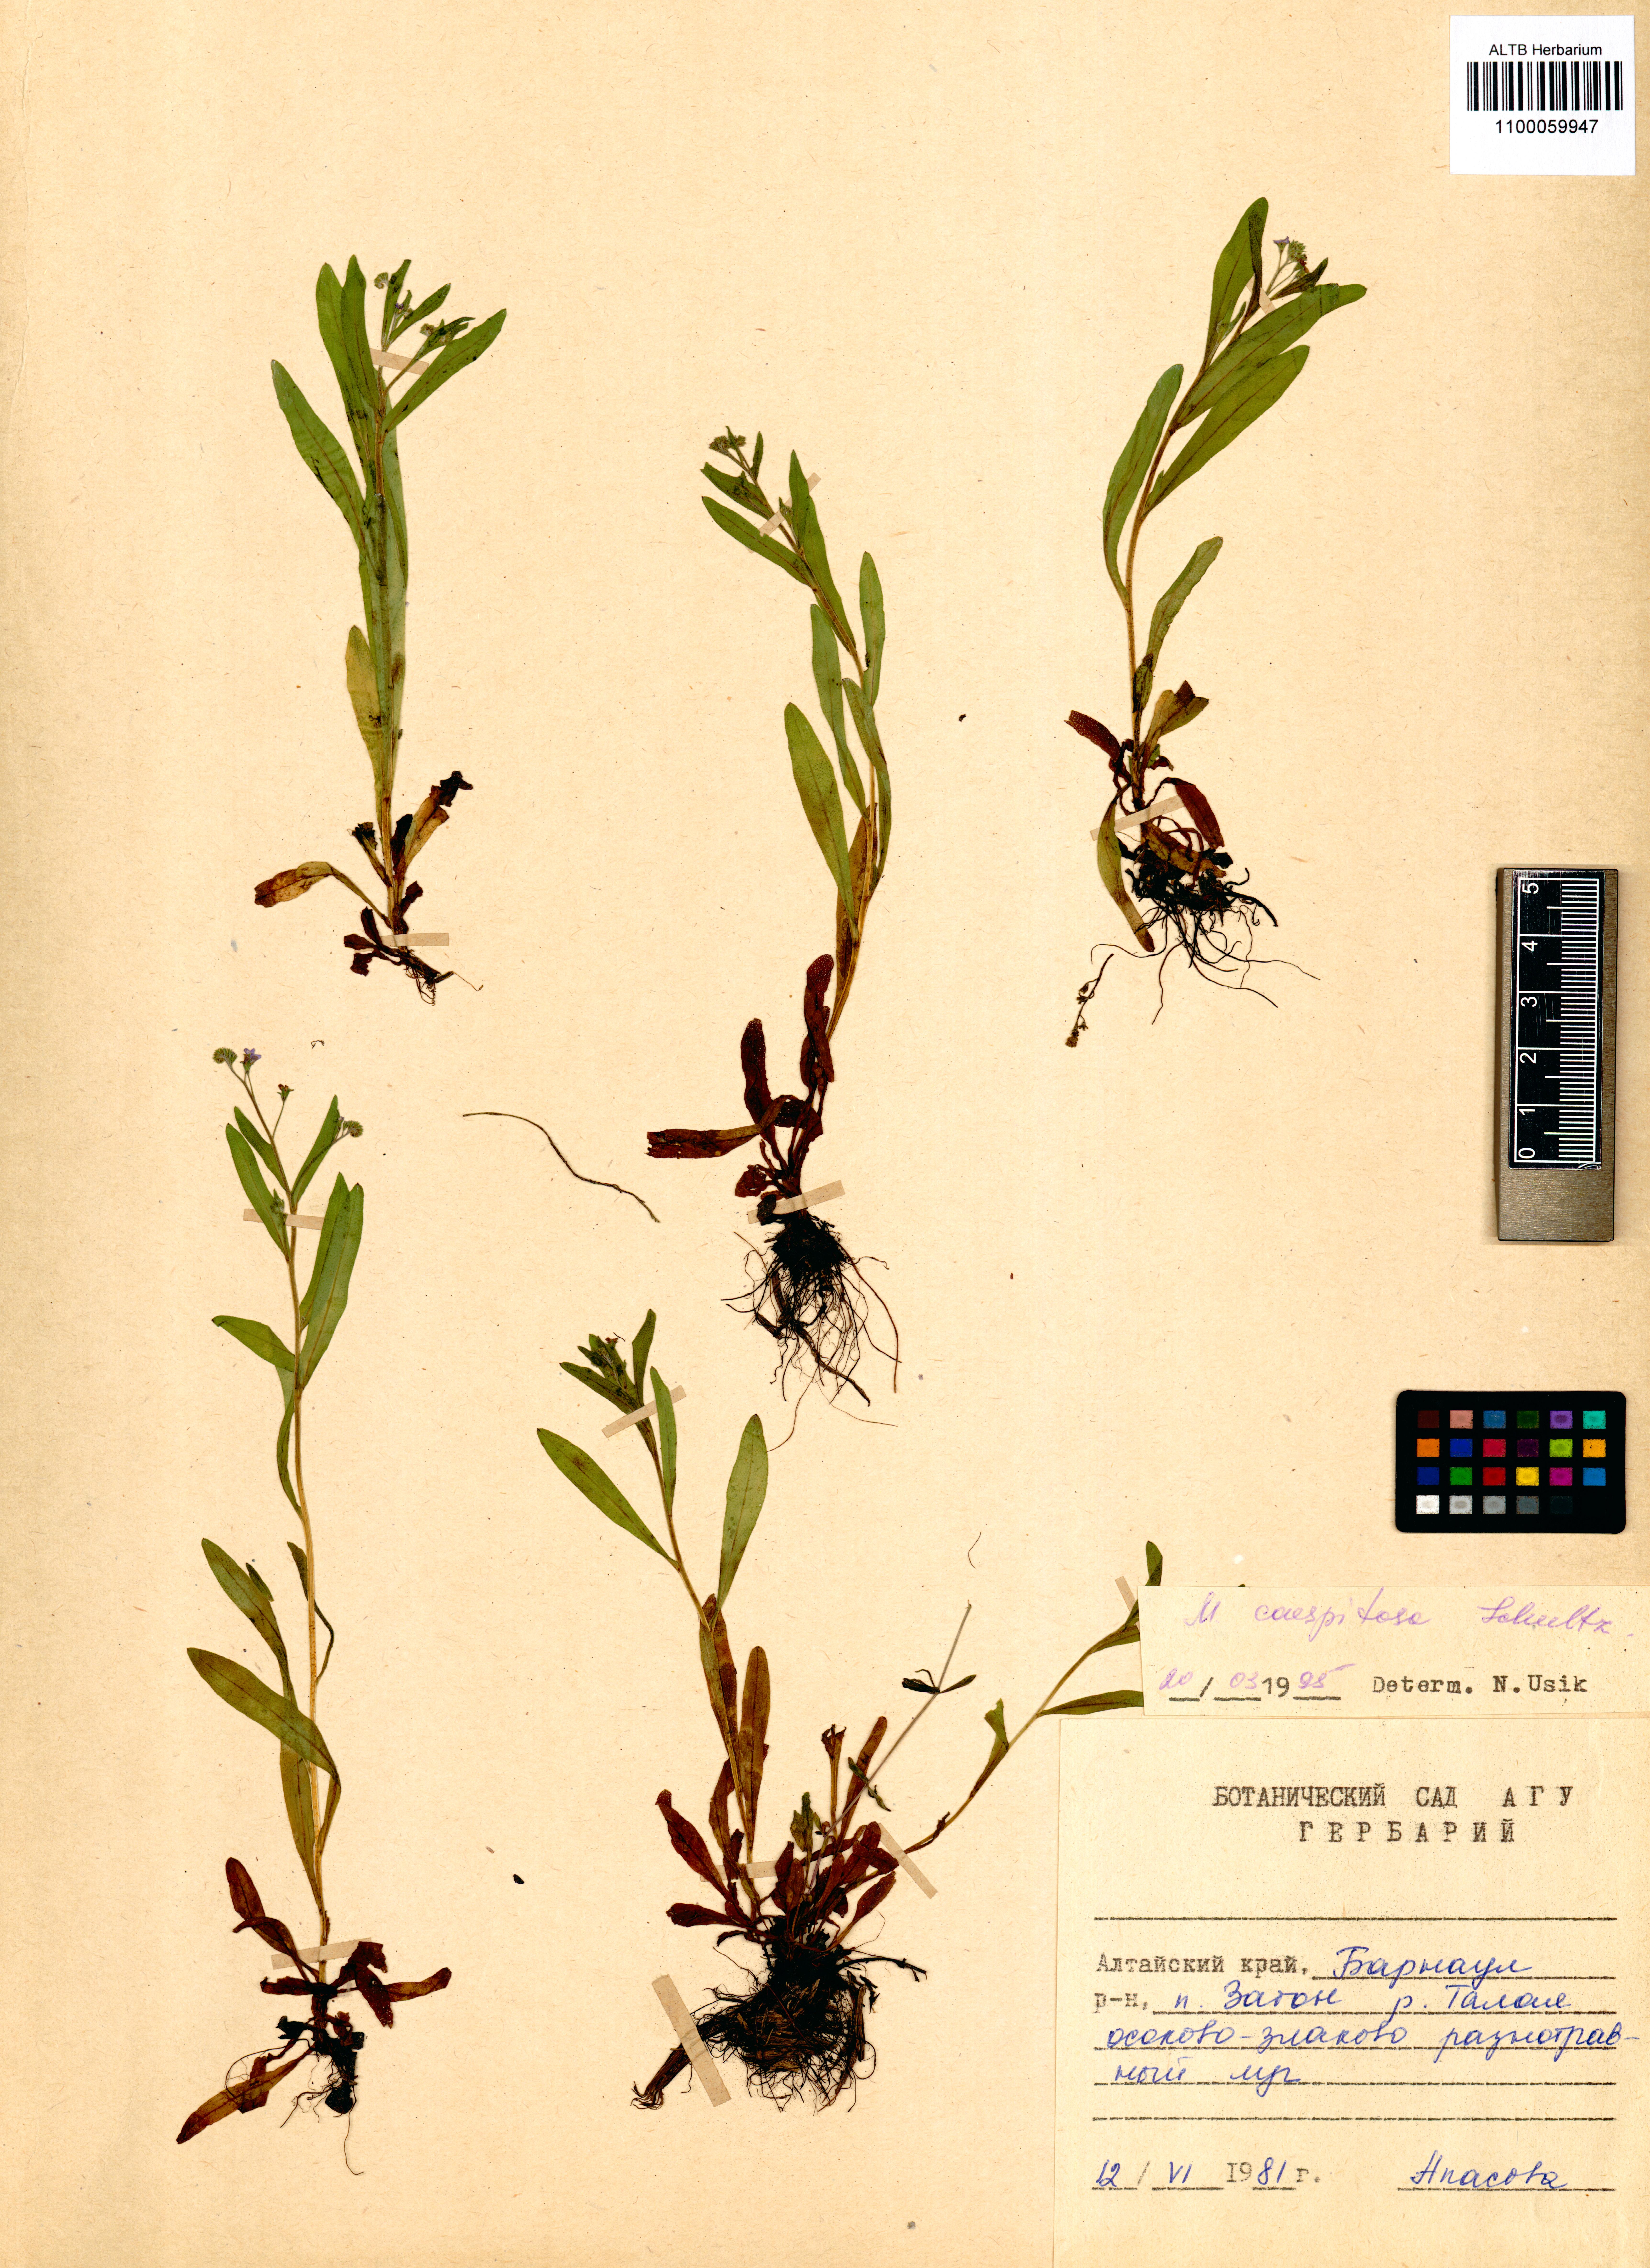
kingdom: Plantae
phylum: Tracheophyta
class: Magnoliopsida
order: Boraginales
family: Boraginaceae
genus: Myosotis
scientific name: Myosotis laxa
